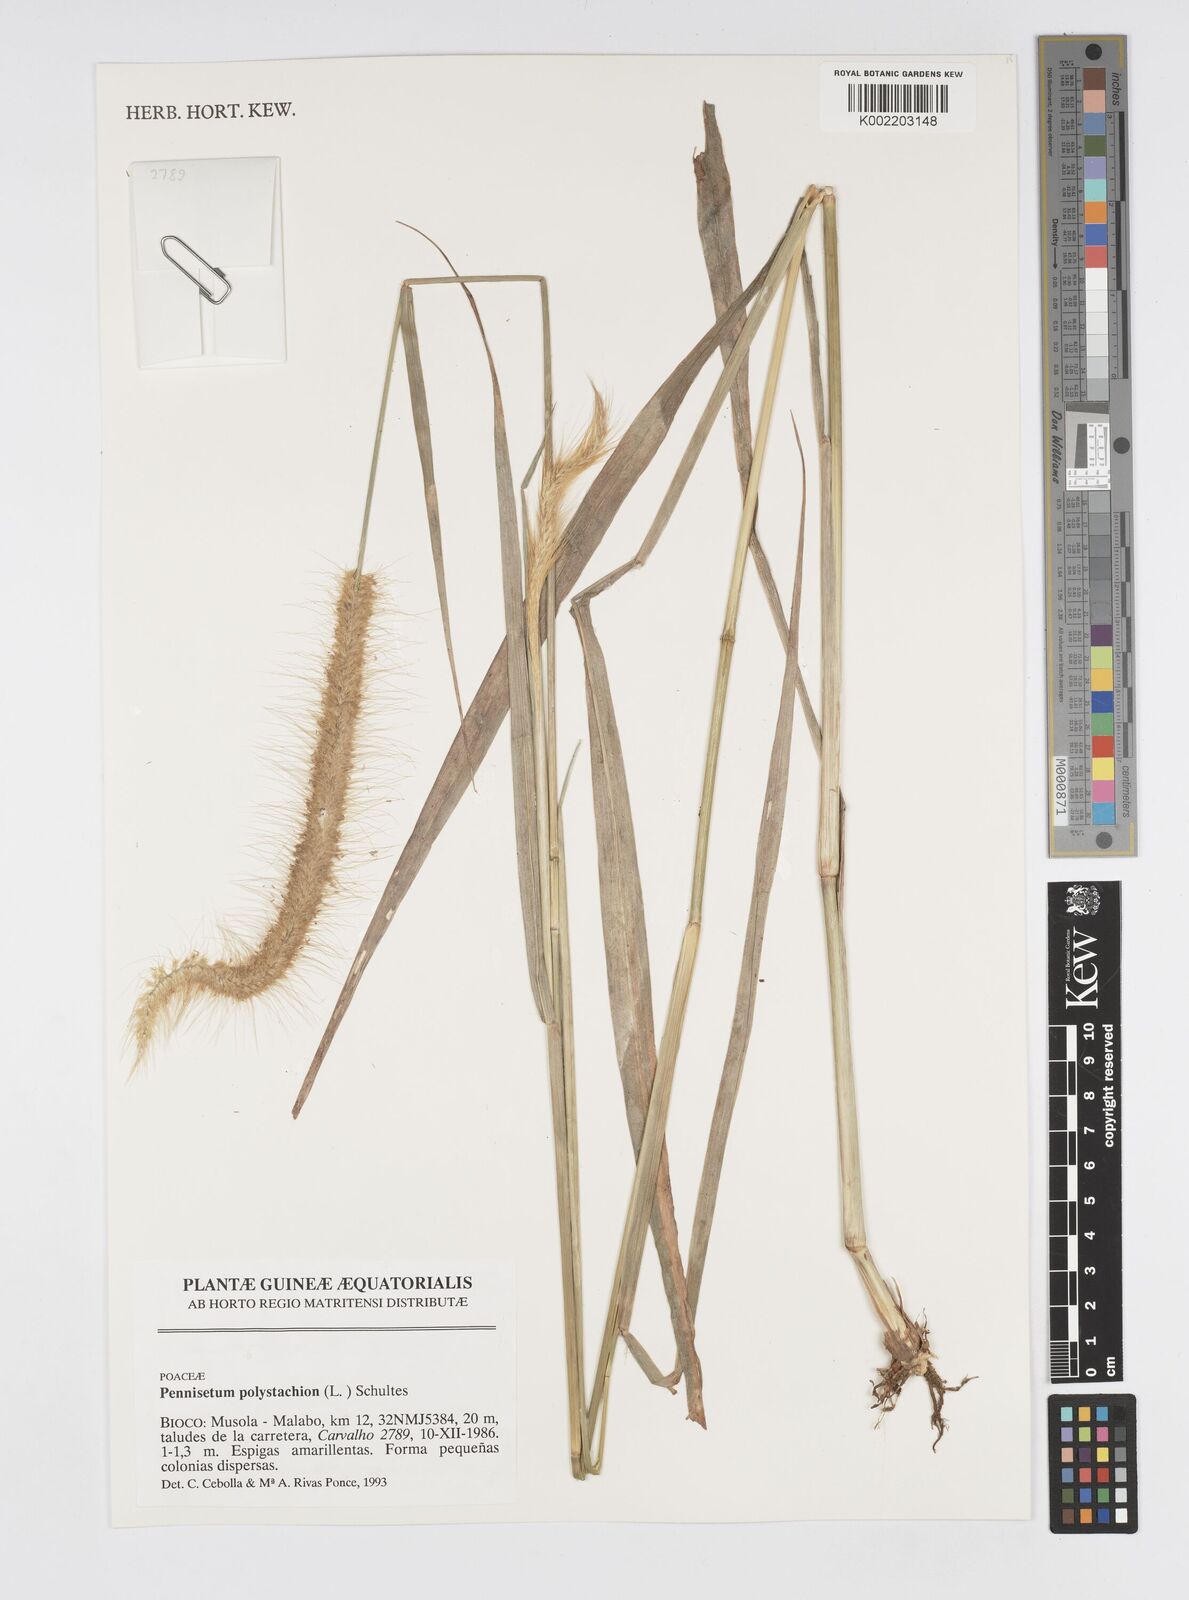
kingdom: Plantae
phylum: Tracheophyta
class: Liliopsida
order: Poales
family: Poaceae
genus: Setaria
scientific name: Setaria parviflora
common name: Knotroot bristle-grass
